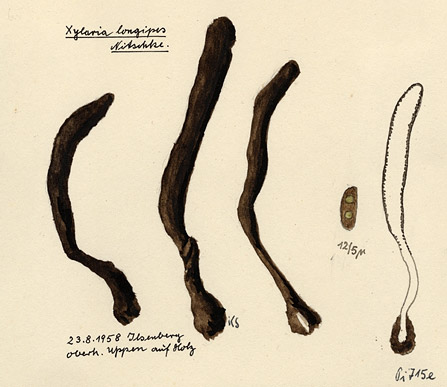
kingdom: Fungi
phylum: Ascomycota
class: Sordariomycetes
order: Xylariales
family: Xylariaceae
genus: Xylaria
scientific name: Xylaria longipes
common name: Dead moll's fingers
